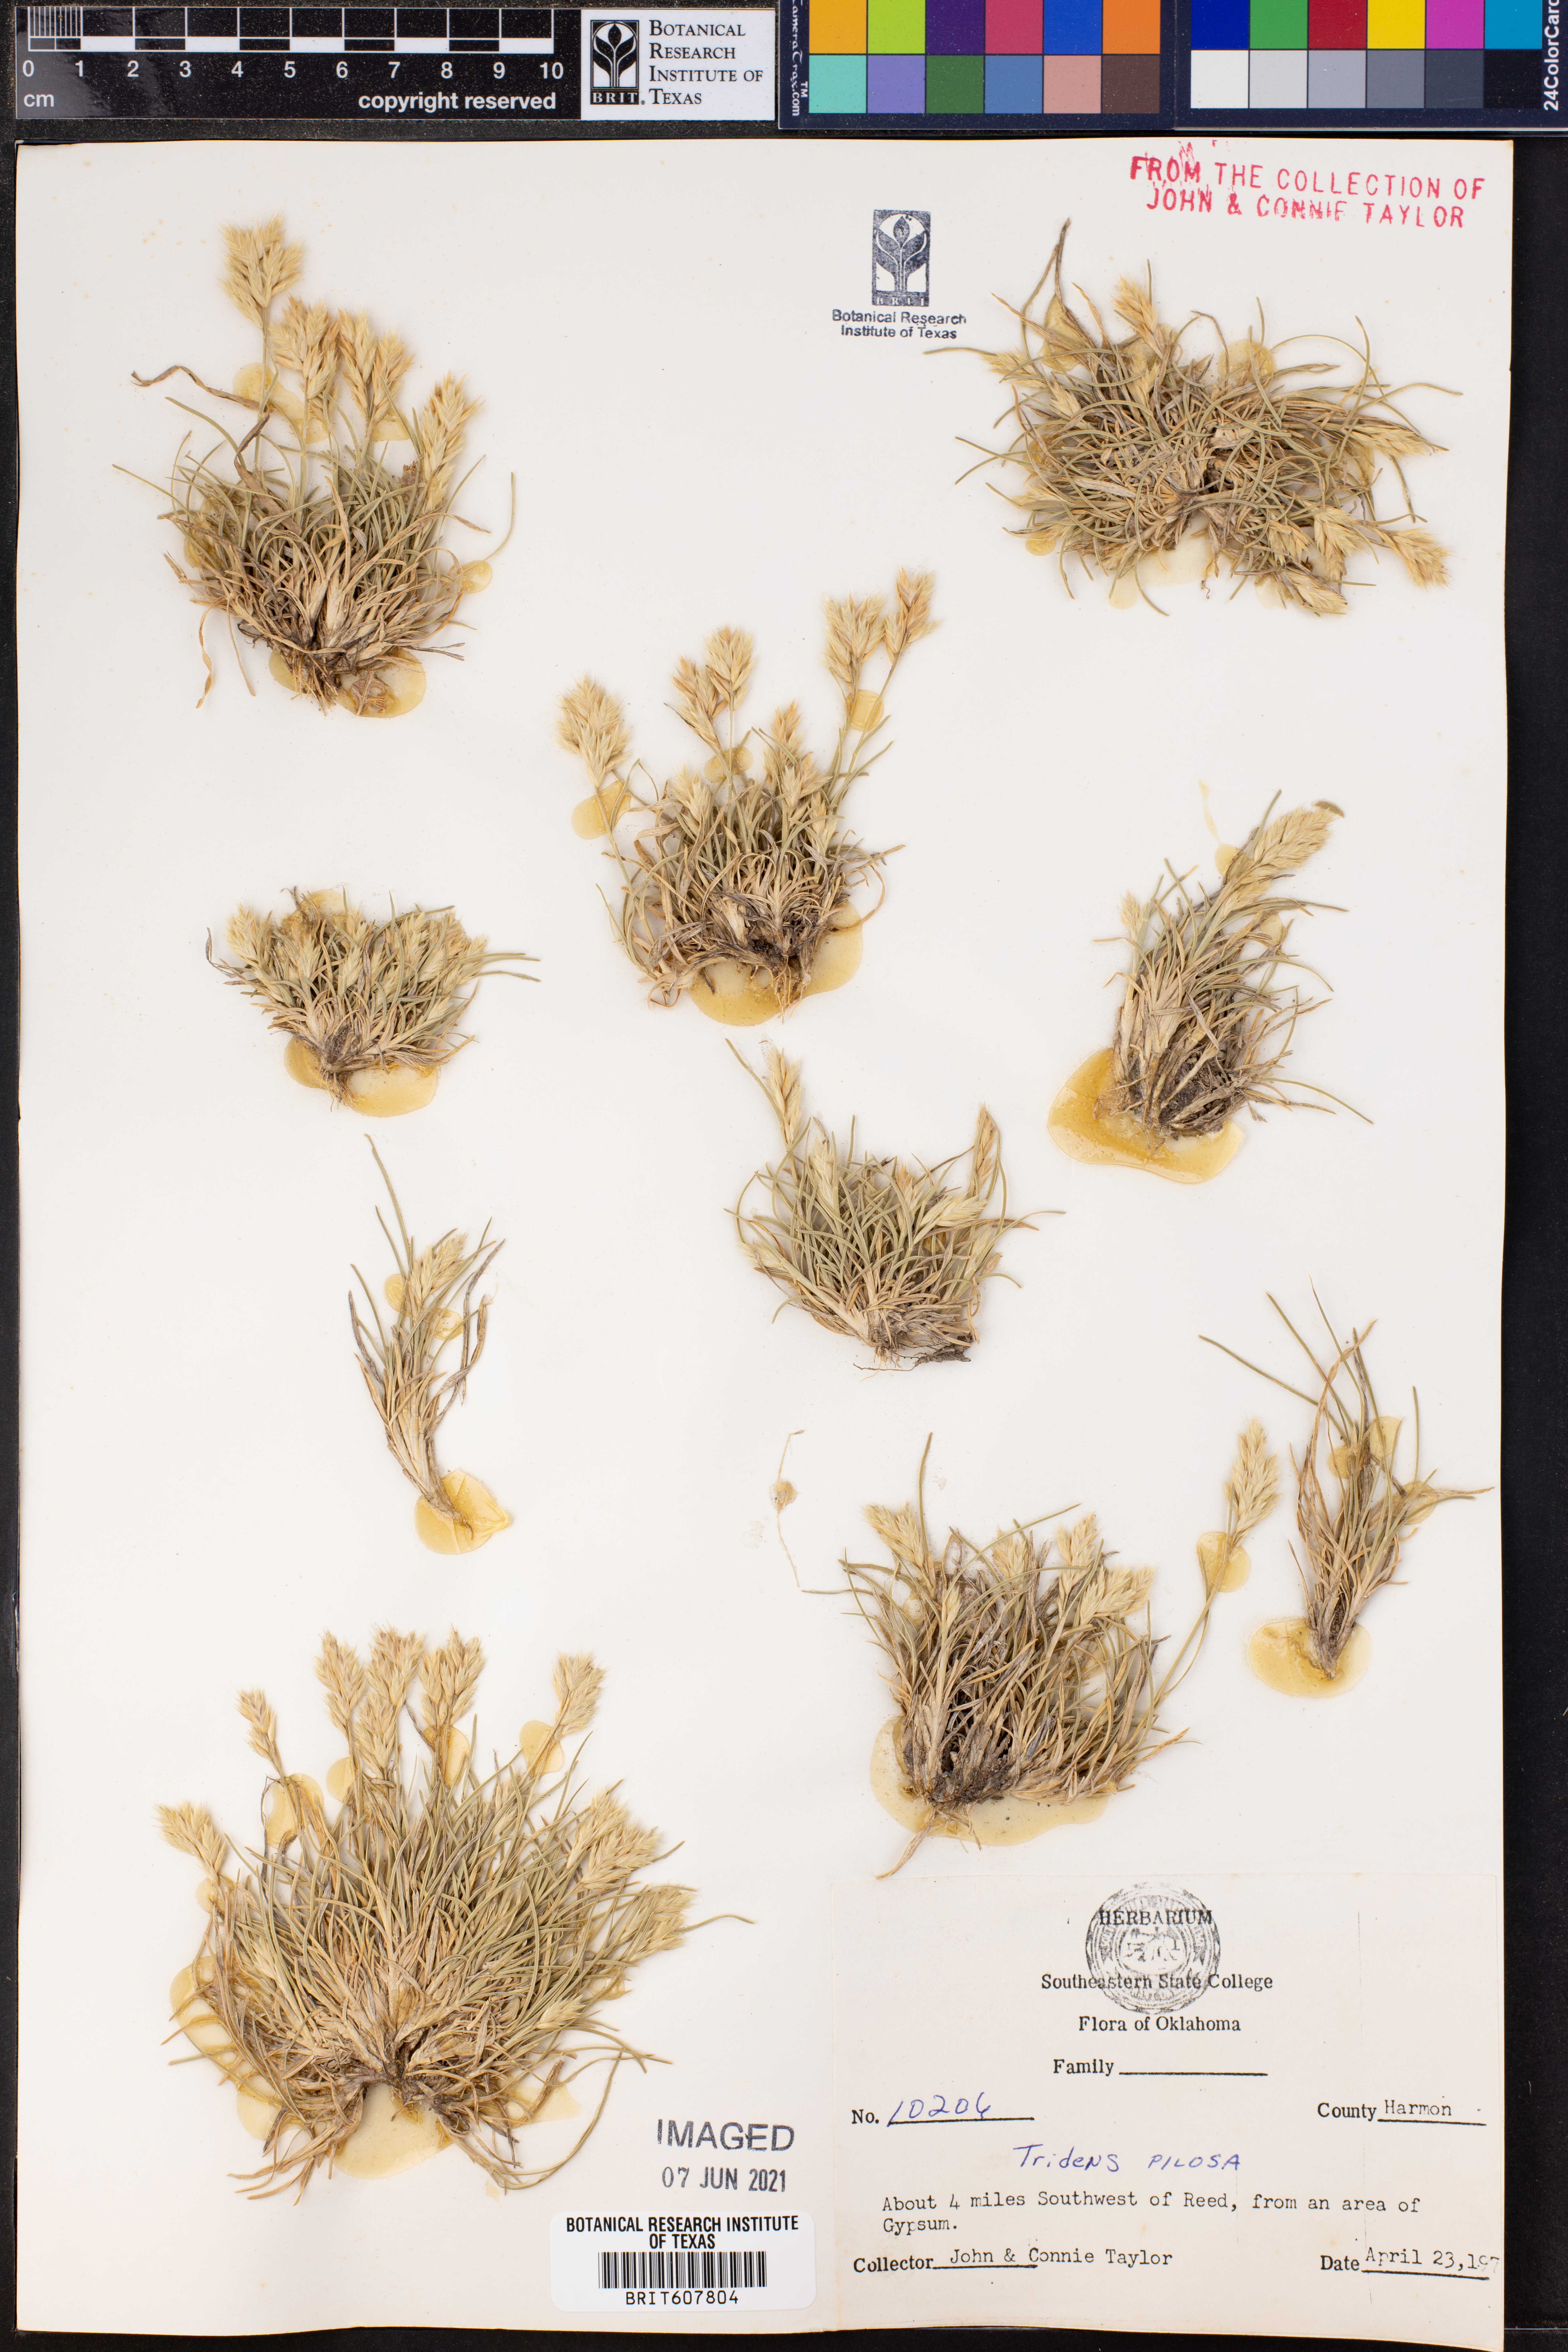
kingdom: Plantae
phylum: Tracheophyta
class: Liliopsida
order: Poales
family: Poaceae
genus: Tridentopsis
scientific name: Tridentopsis mutica
